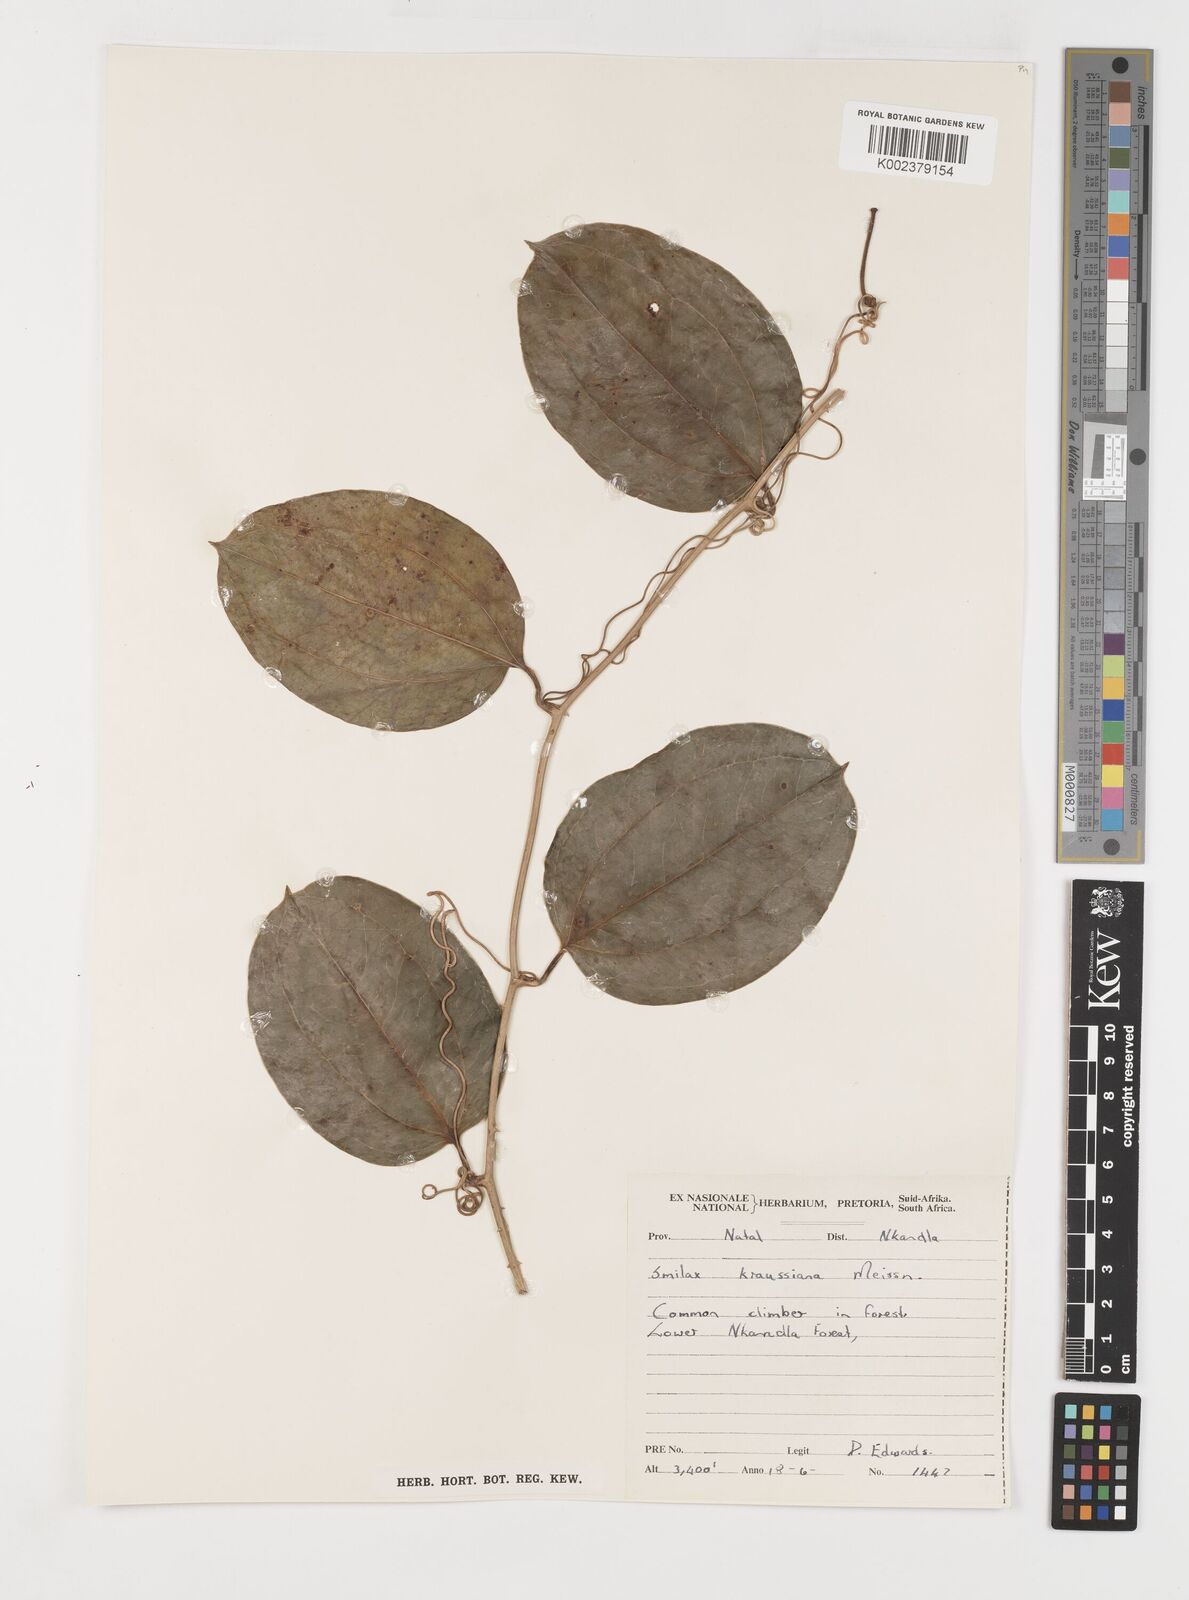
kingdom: Plantae
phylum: Tracheophyta
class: Liliopsida
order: Liliales
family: Smilacaceae
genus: Smilax
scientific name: Smilax anceps
